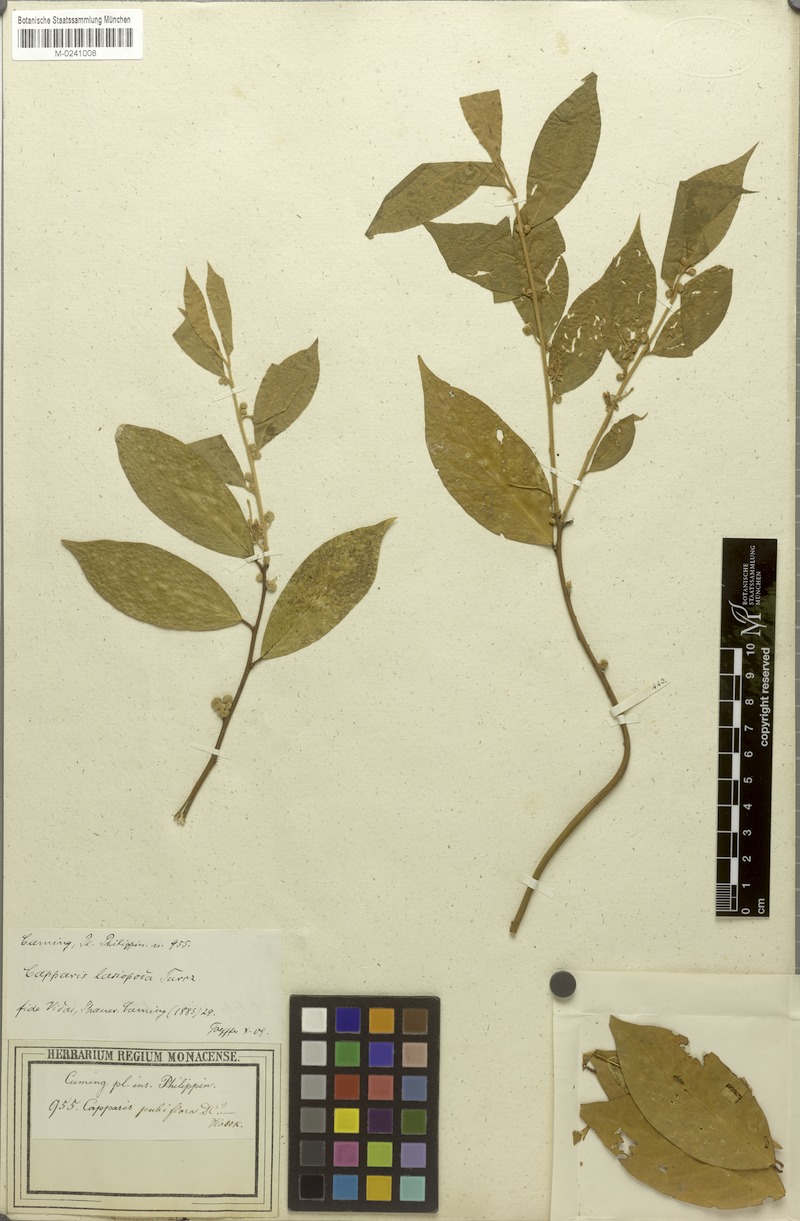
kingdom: Plantae
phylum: Tracheophyta
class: Magnoliopsida
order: Brassicales
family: Capparaceae
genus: Capparis
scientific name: Capparis pubiflora
